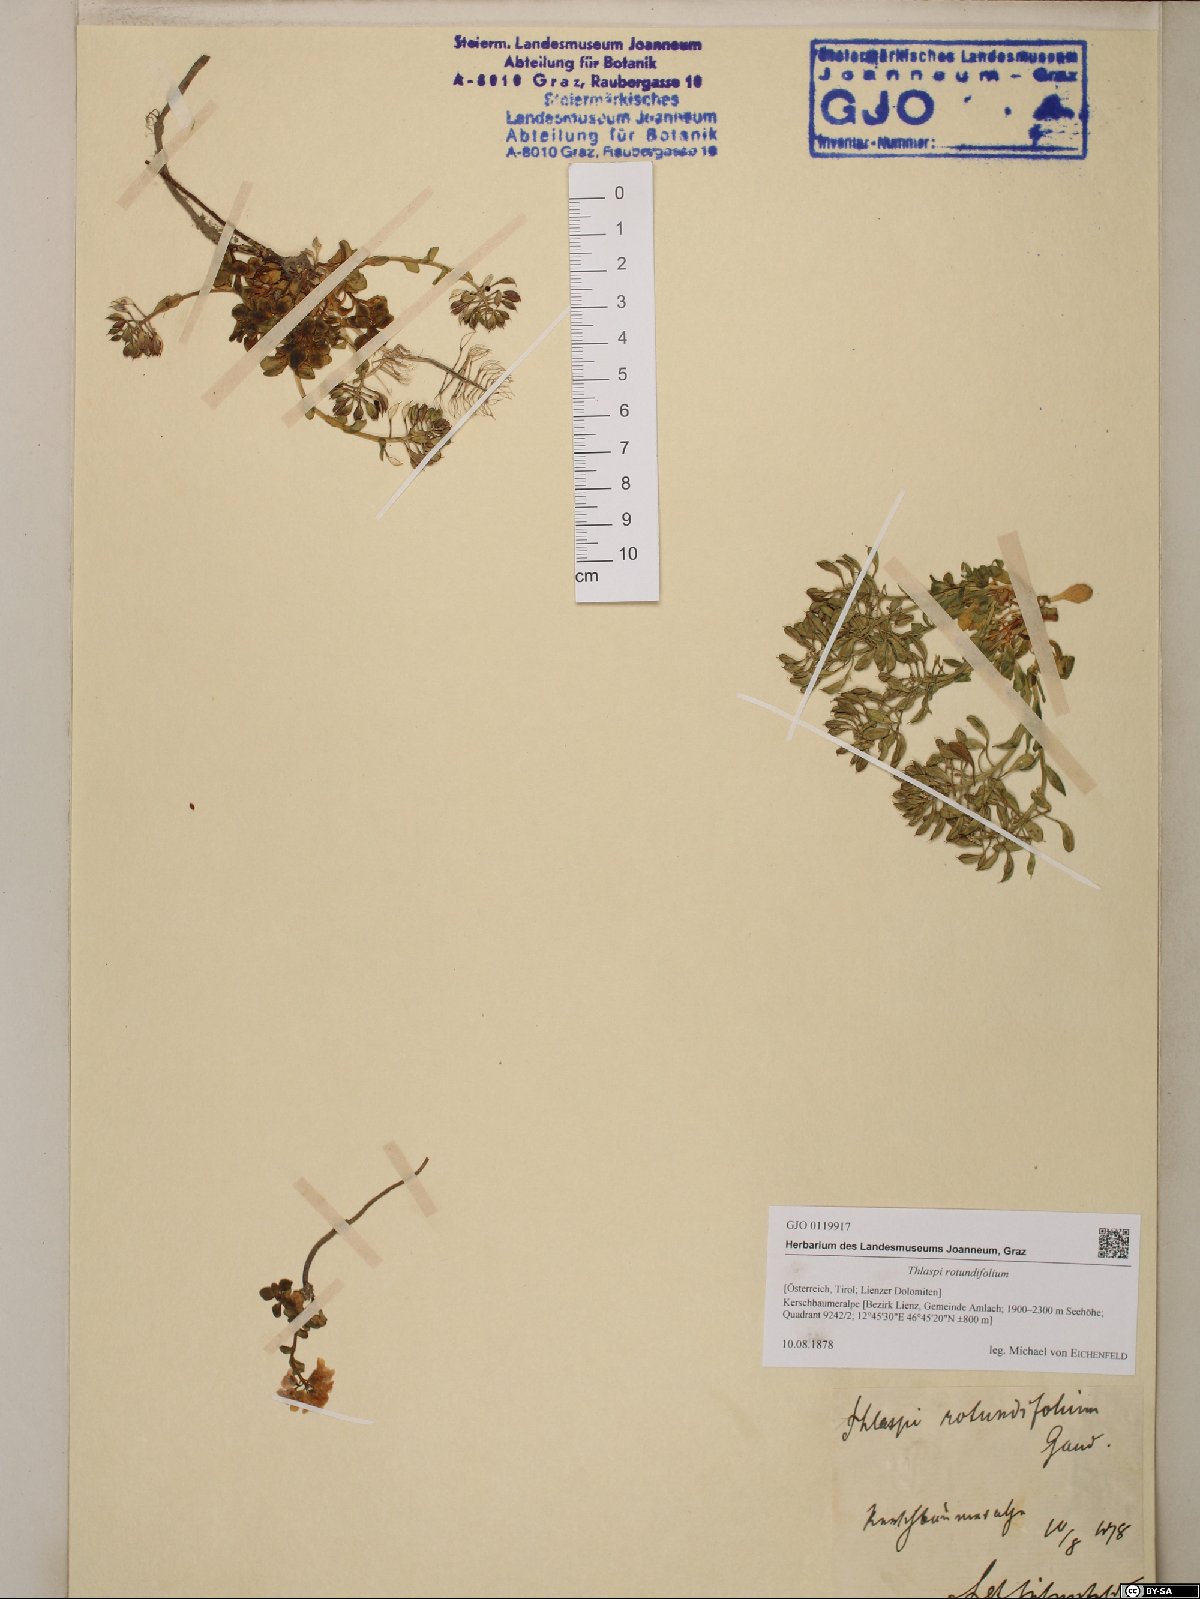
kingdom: Plantae
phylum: Tracheophyta
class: Magnoliopsida
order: Brassicales
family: Brassicaceae
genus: Noccaea
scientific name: Noccaea rotundifolia
